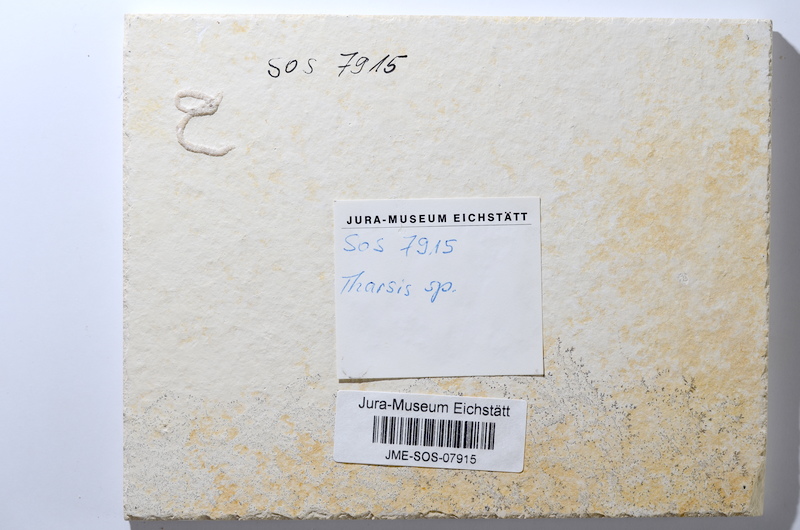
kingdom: Animalia
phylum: Chordata
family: Ascalaboidae
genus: Tharsis
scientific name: Tharsis dubius
